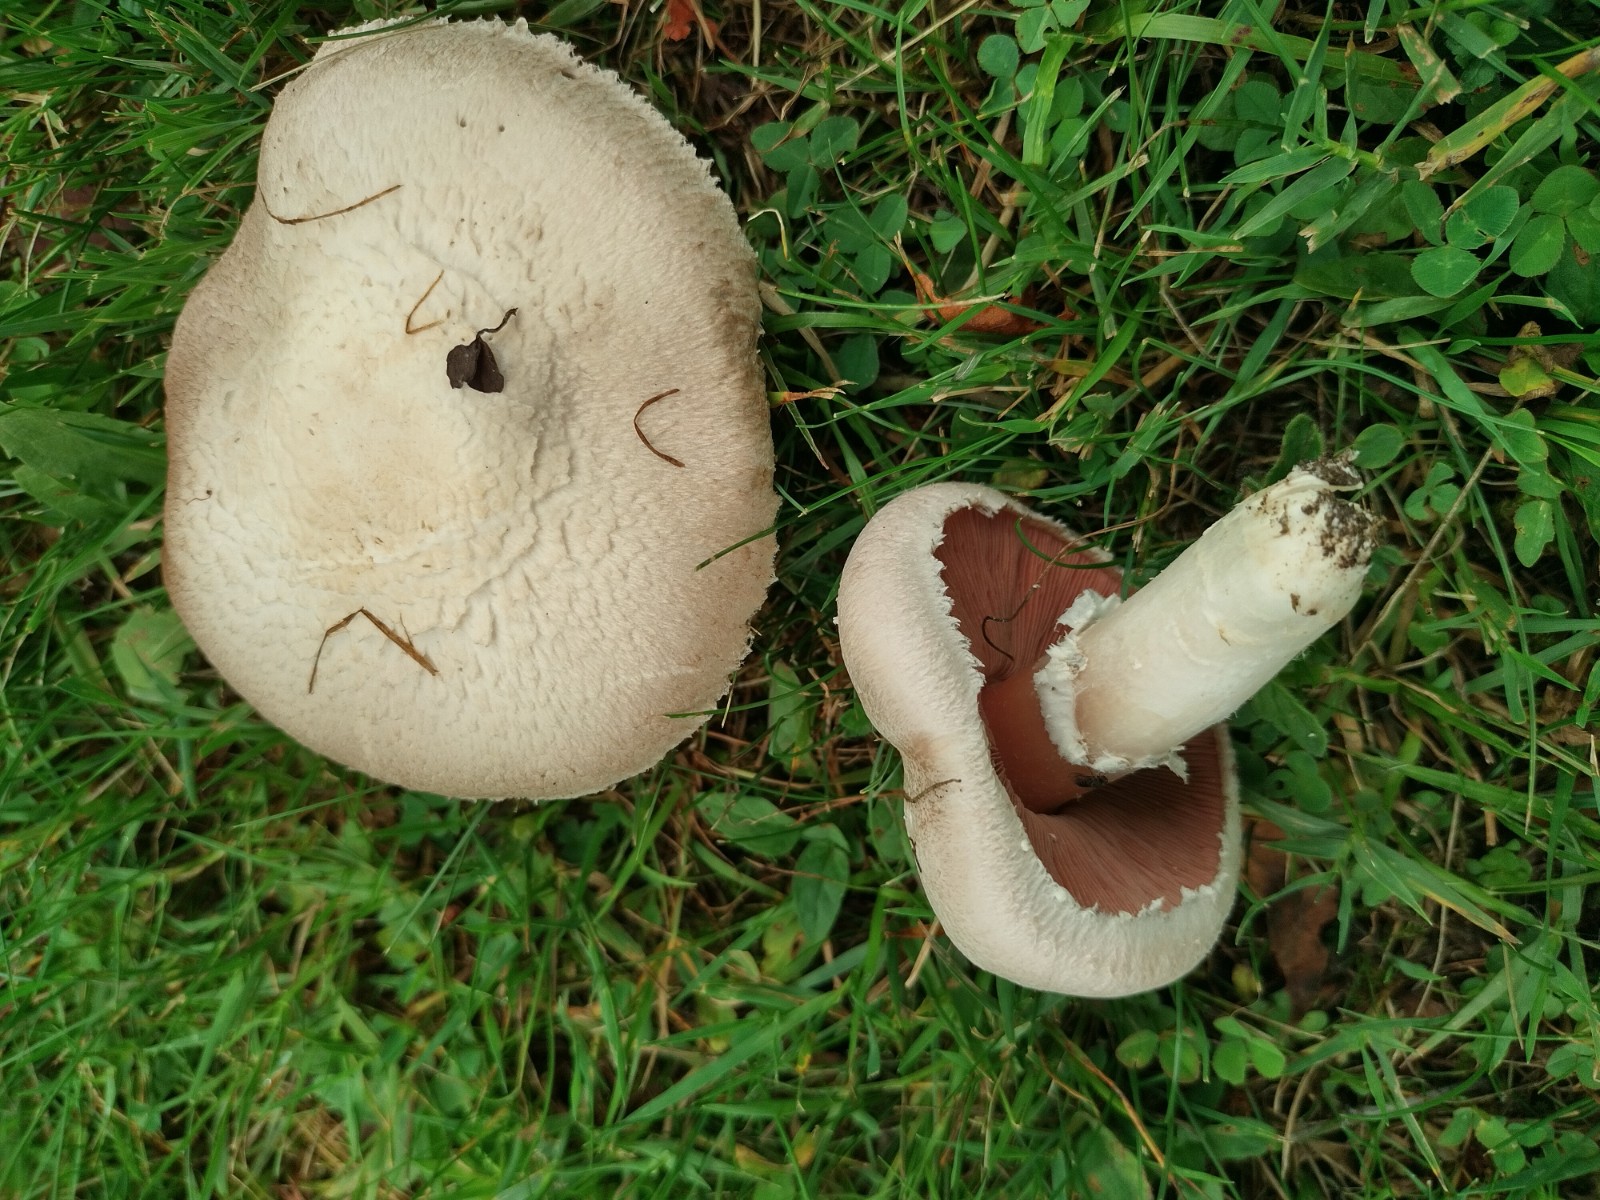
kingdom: Fungi
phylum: Basidiomycota
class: Agaricomycetes
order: Agaricales
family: Agaricaceae
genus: Agaricus
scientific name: Agaricus campestris
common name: mark-champignon
